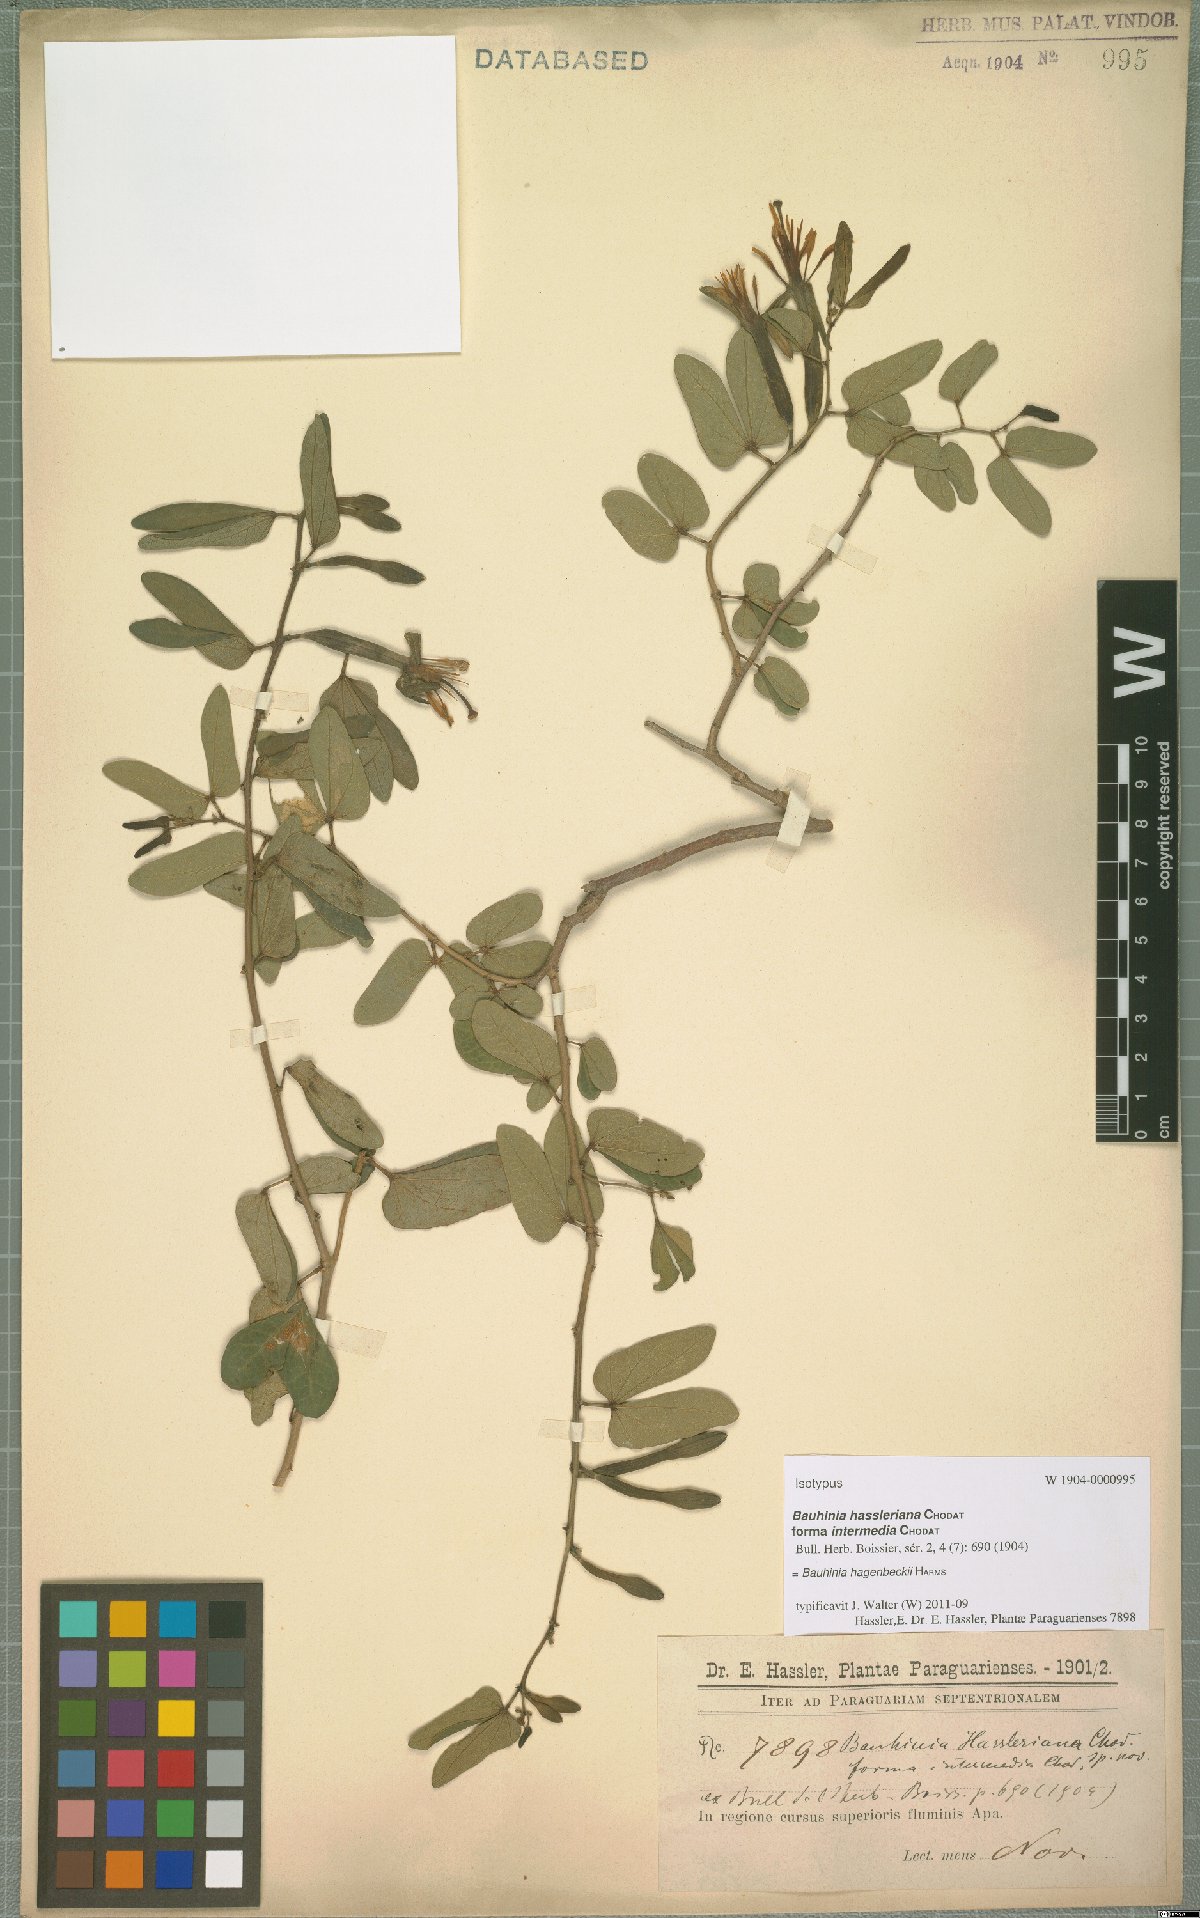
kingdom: Plantae
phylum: Tracheophyta
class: Magnoliopsida
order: Fabales
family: Fabaceae
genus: Bauhinia
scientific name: Bauhinia hagenbeckii
